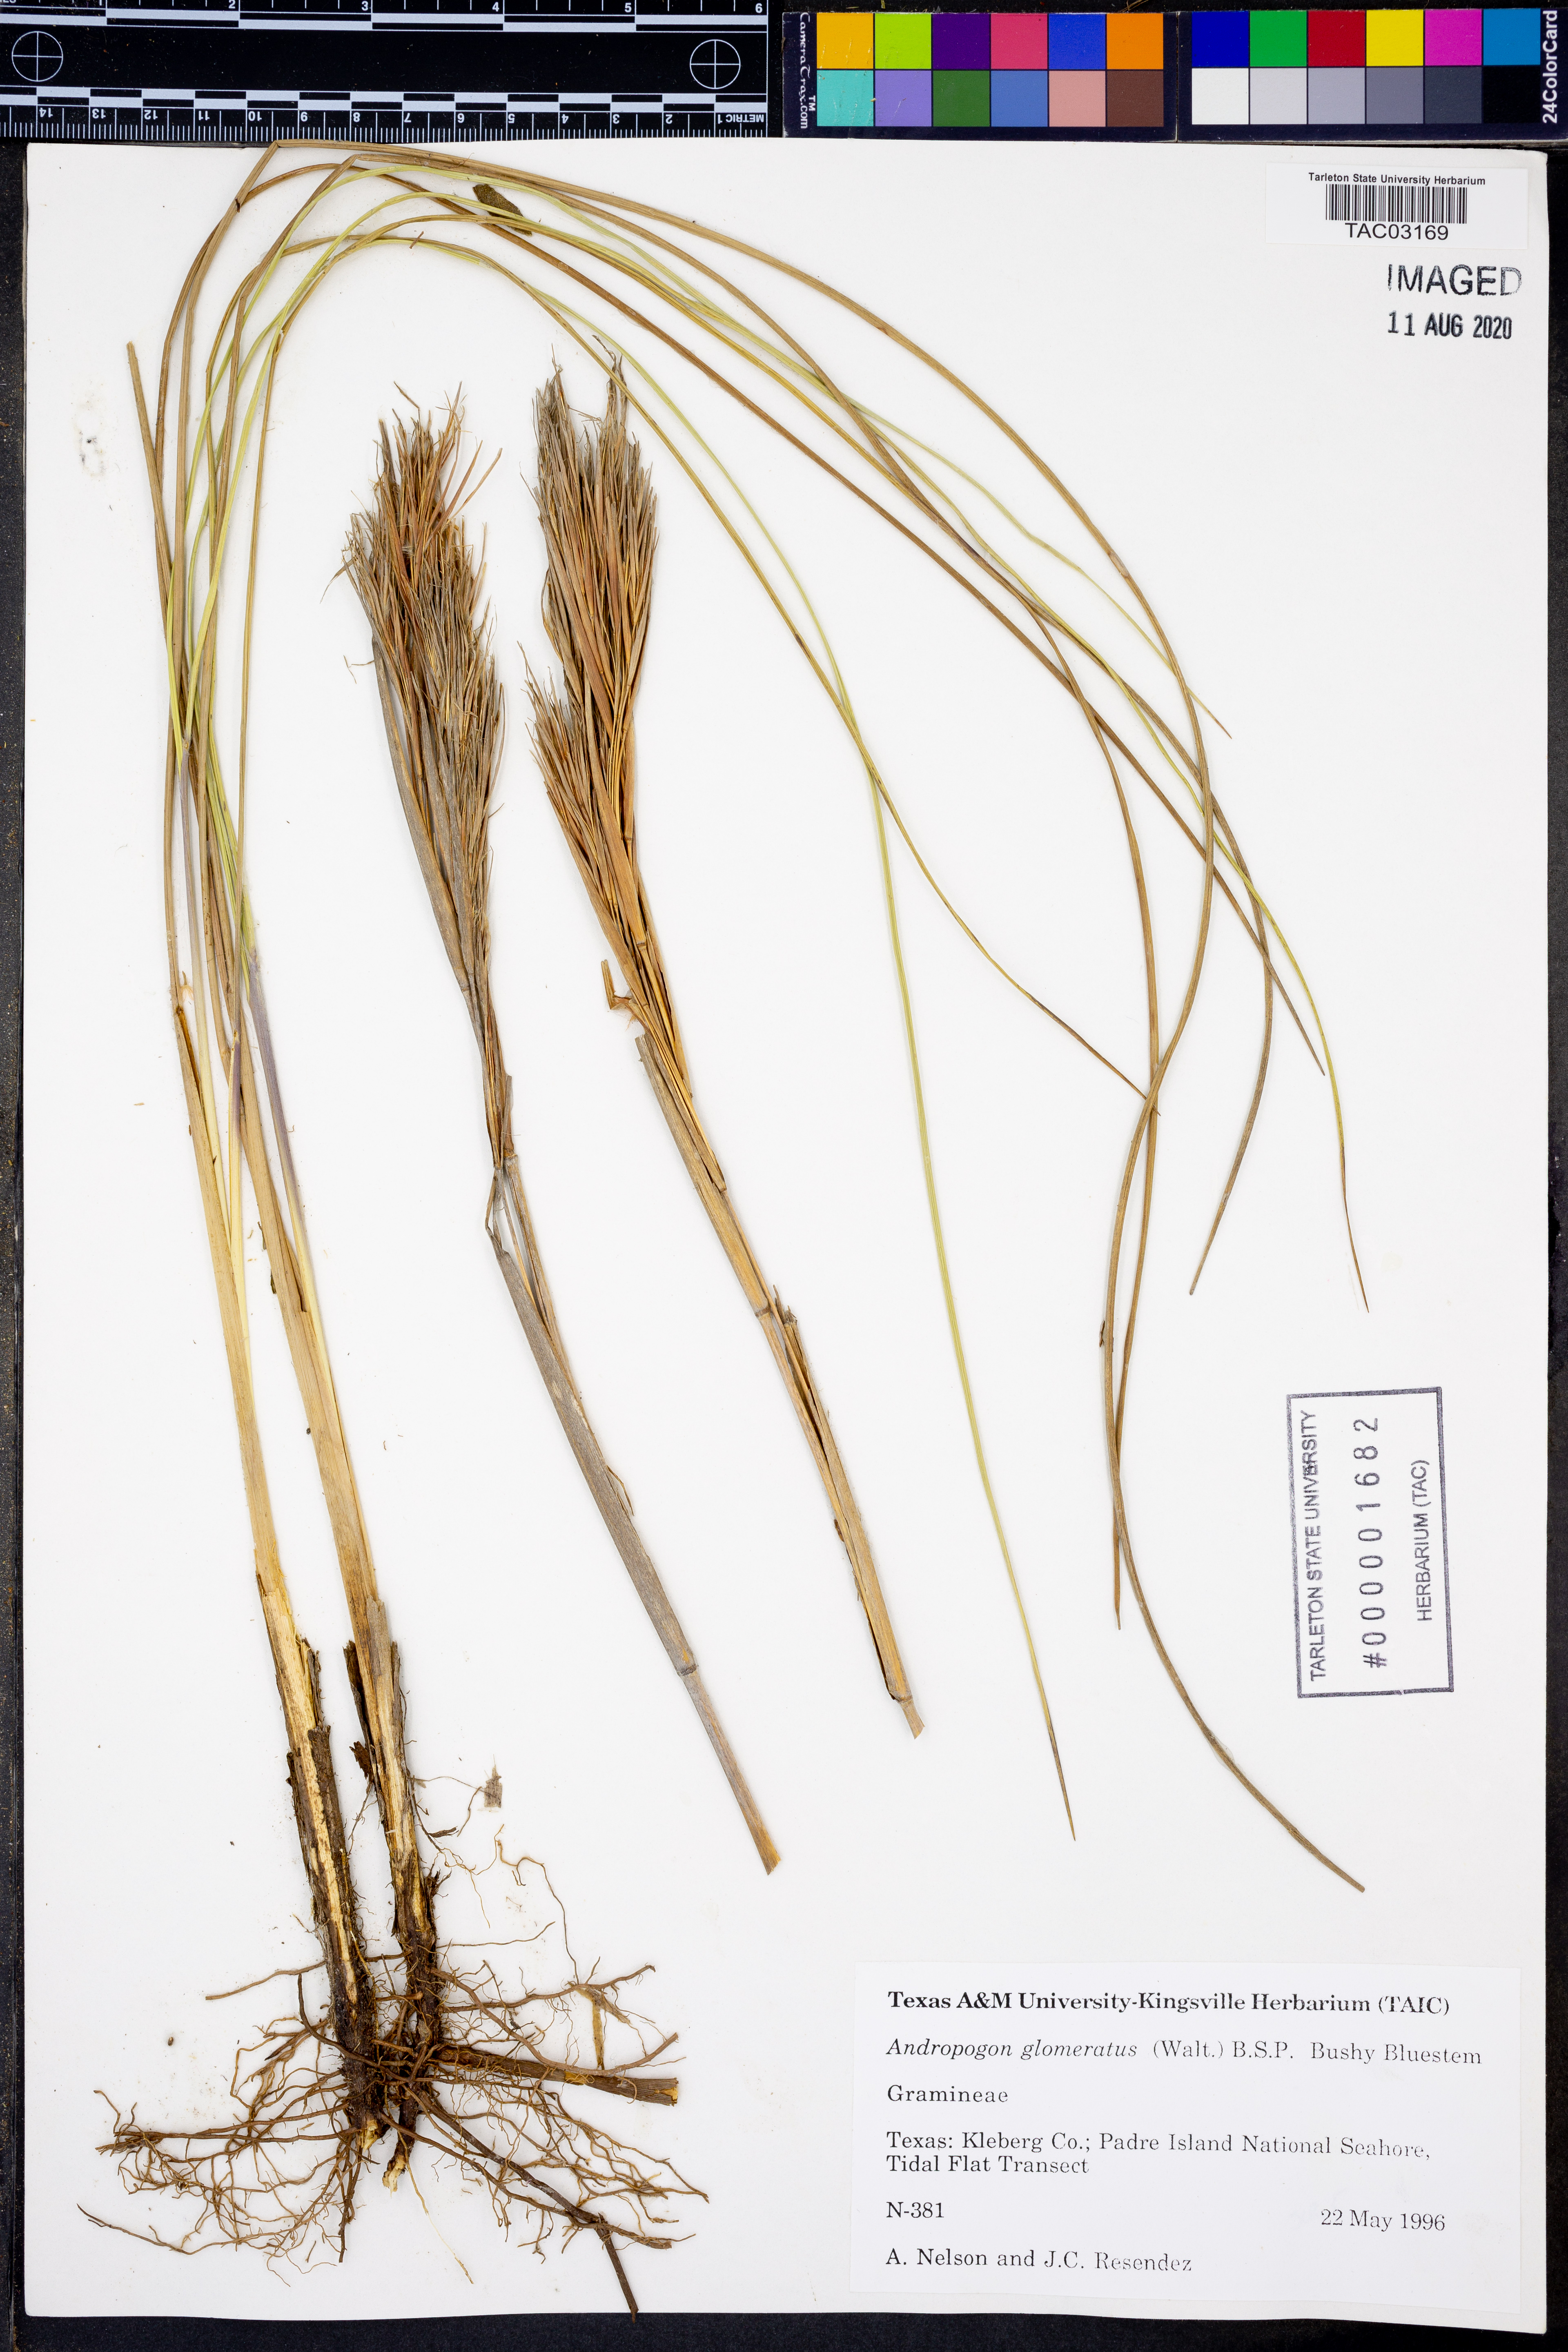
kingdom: Plantae
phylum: Tracheophyta
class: Liliopsida
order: Poales
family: Poaceae
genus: Andropogon
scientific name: Andropogon glomeratus
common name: Bushy beard grass
